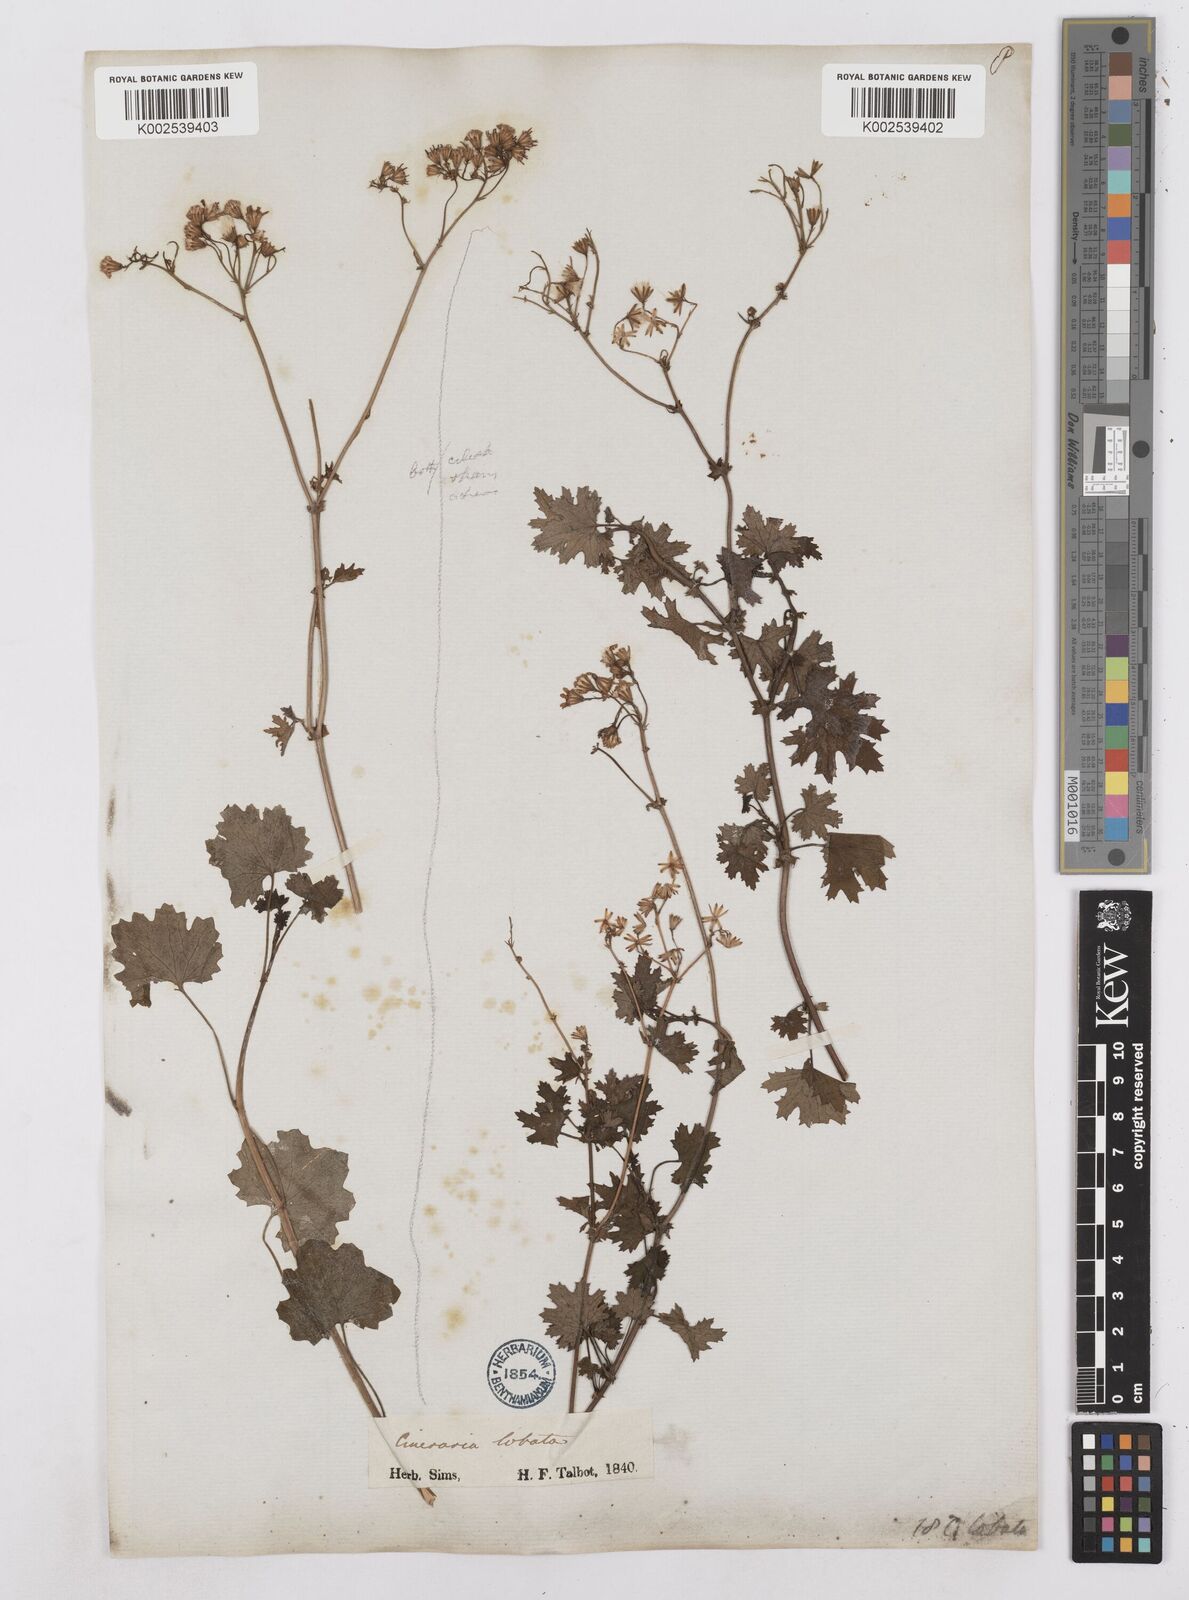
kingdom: Plantae
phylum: Tracheophyta
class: Magnoliopsida
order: Asterales
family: Asteraceae
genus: Cineraria
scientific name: Cineraria
